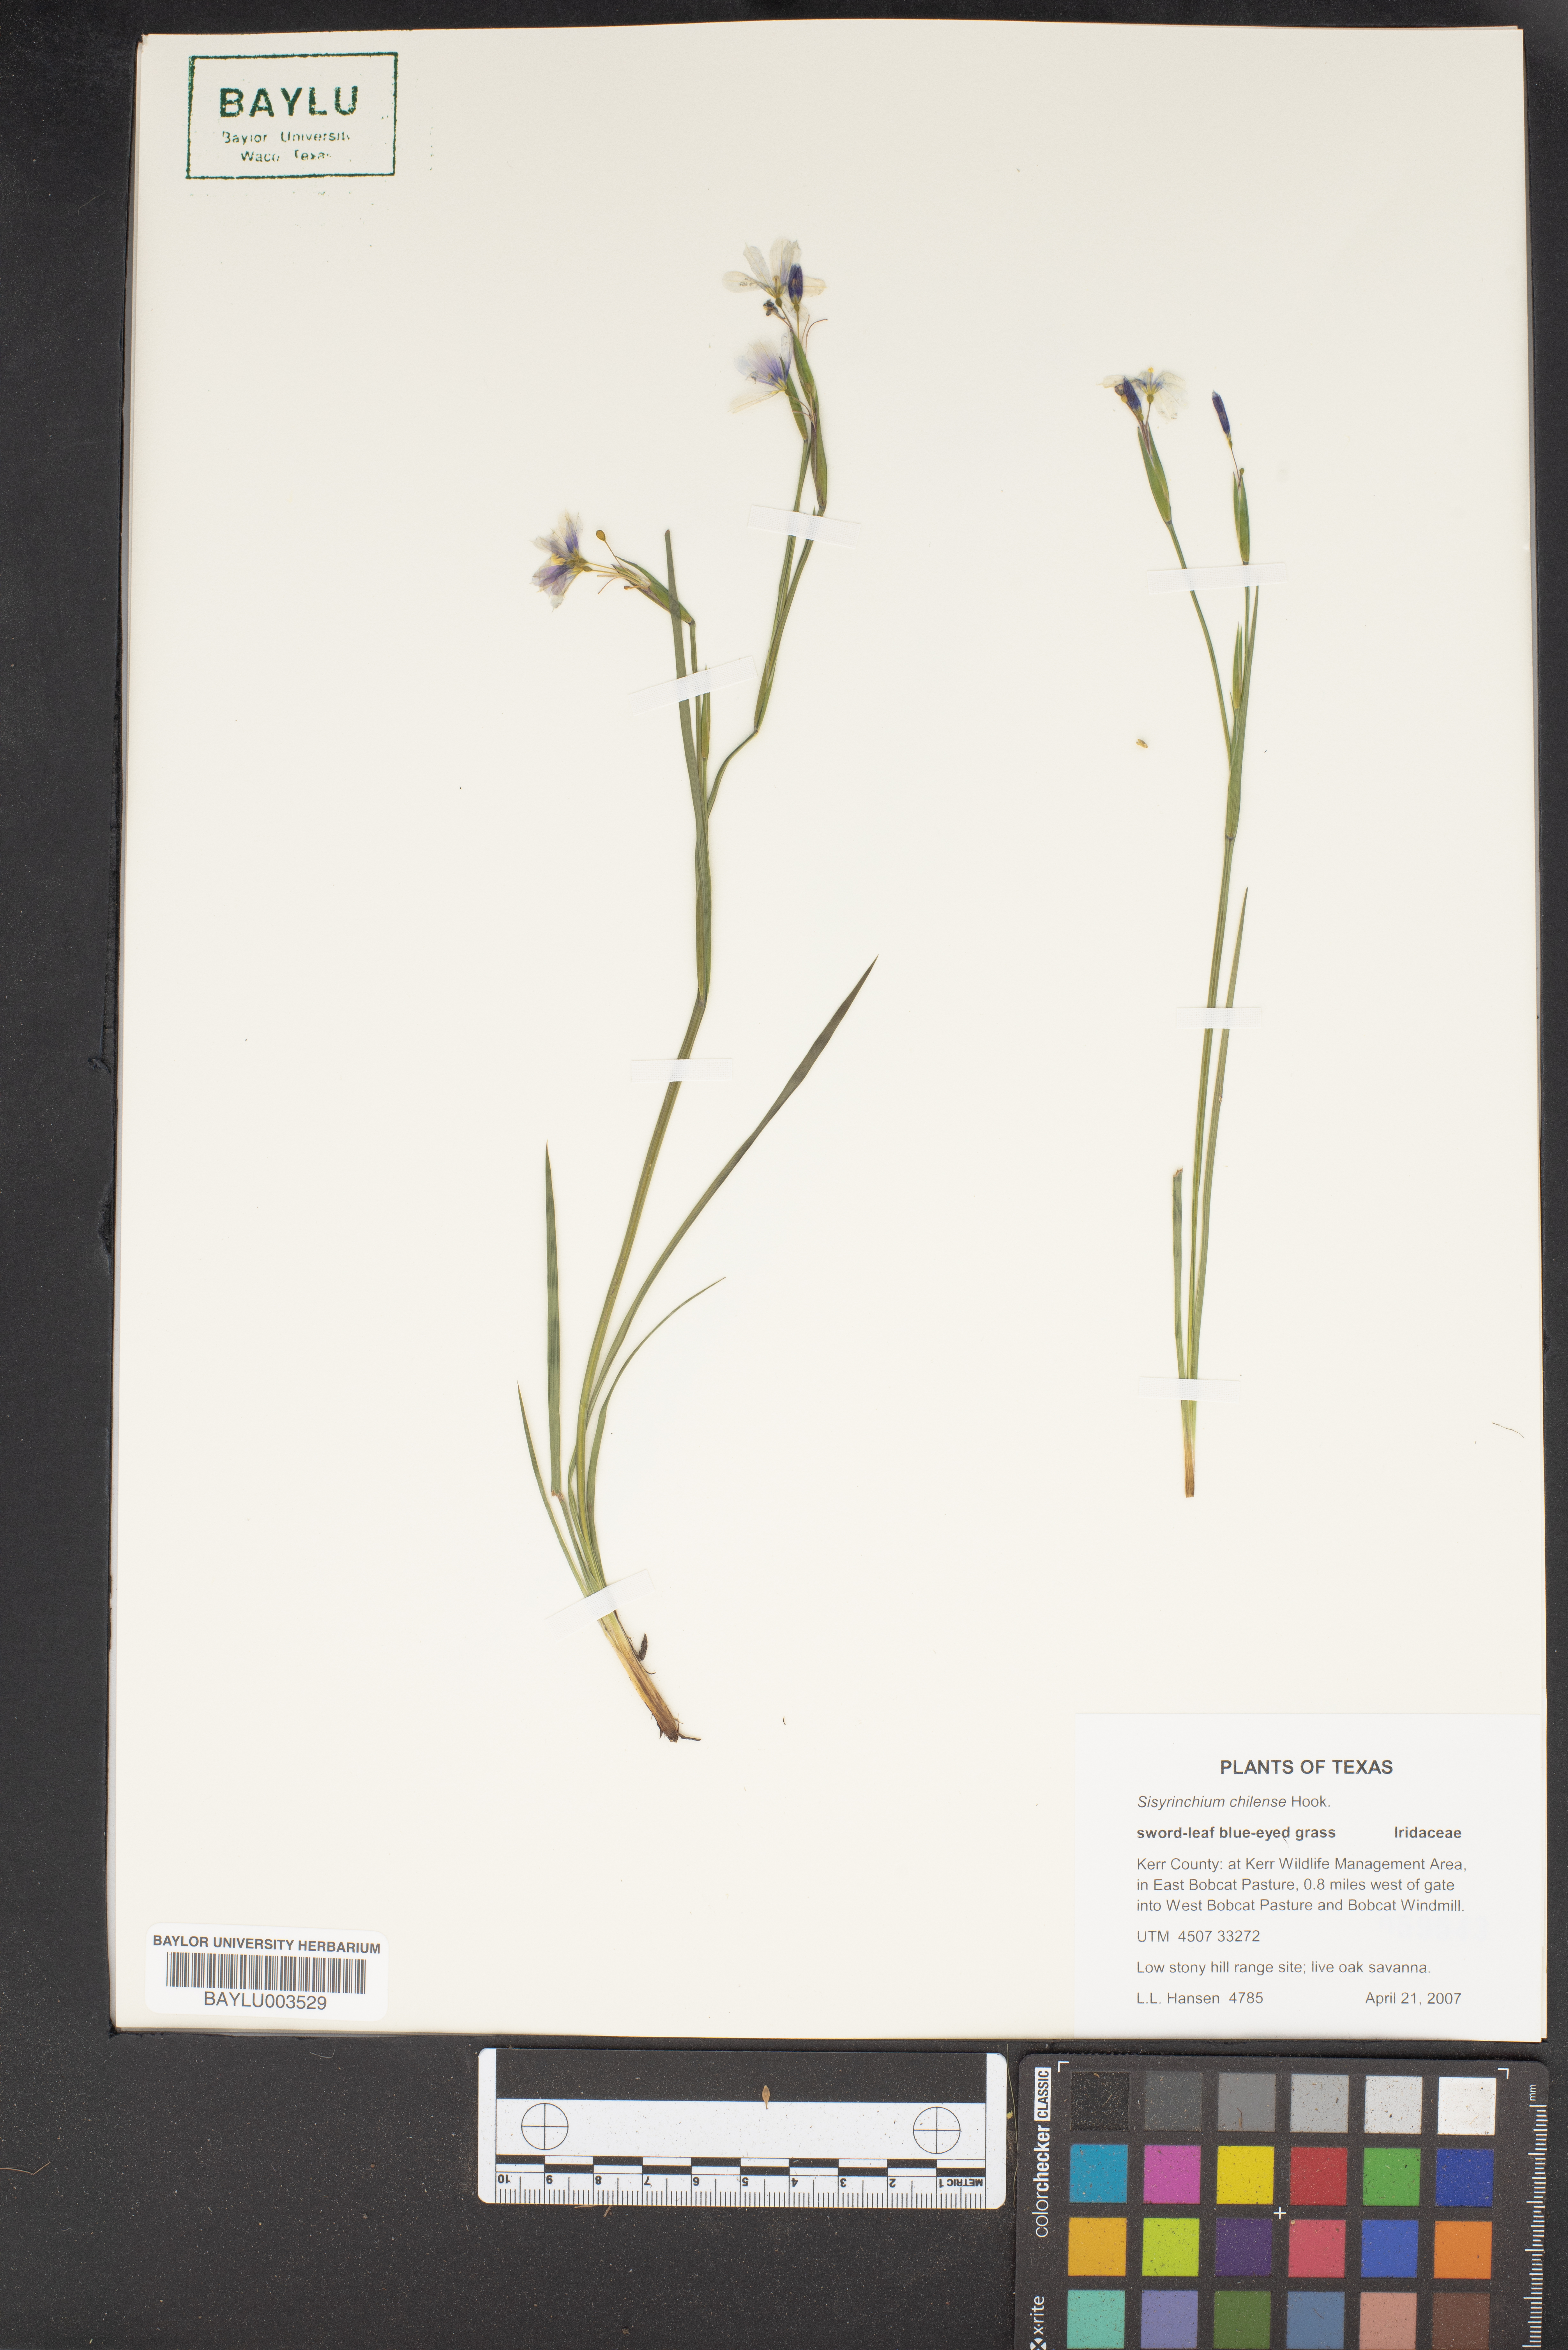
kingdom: Plantae
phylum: Tracheophyta
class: Liliopsida
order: Asparagales
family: Iridaceae
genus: Sisyrinchium
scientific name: Sisyrinchium chilense
